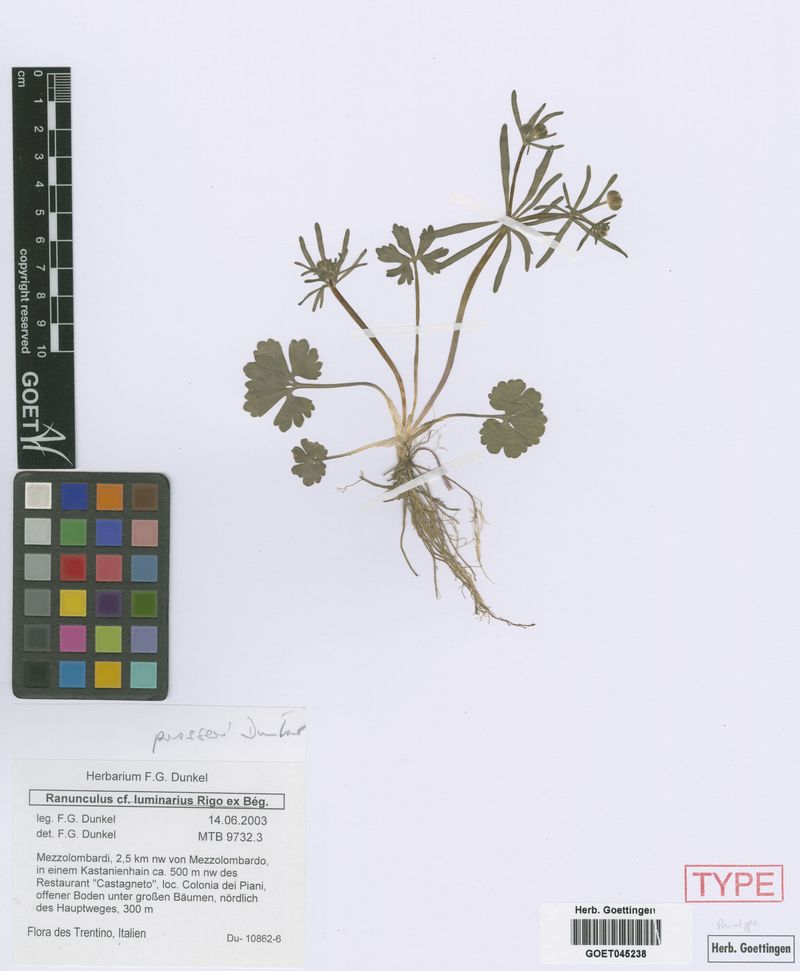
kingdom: Plantae
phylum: Tracheophyta
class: Magnoliopsida
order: Ranunculales
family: Ranunculaceae
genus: Ranunculus
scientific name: Ranunculus prosseri
